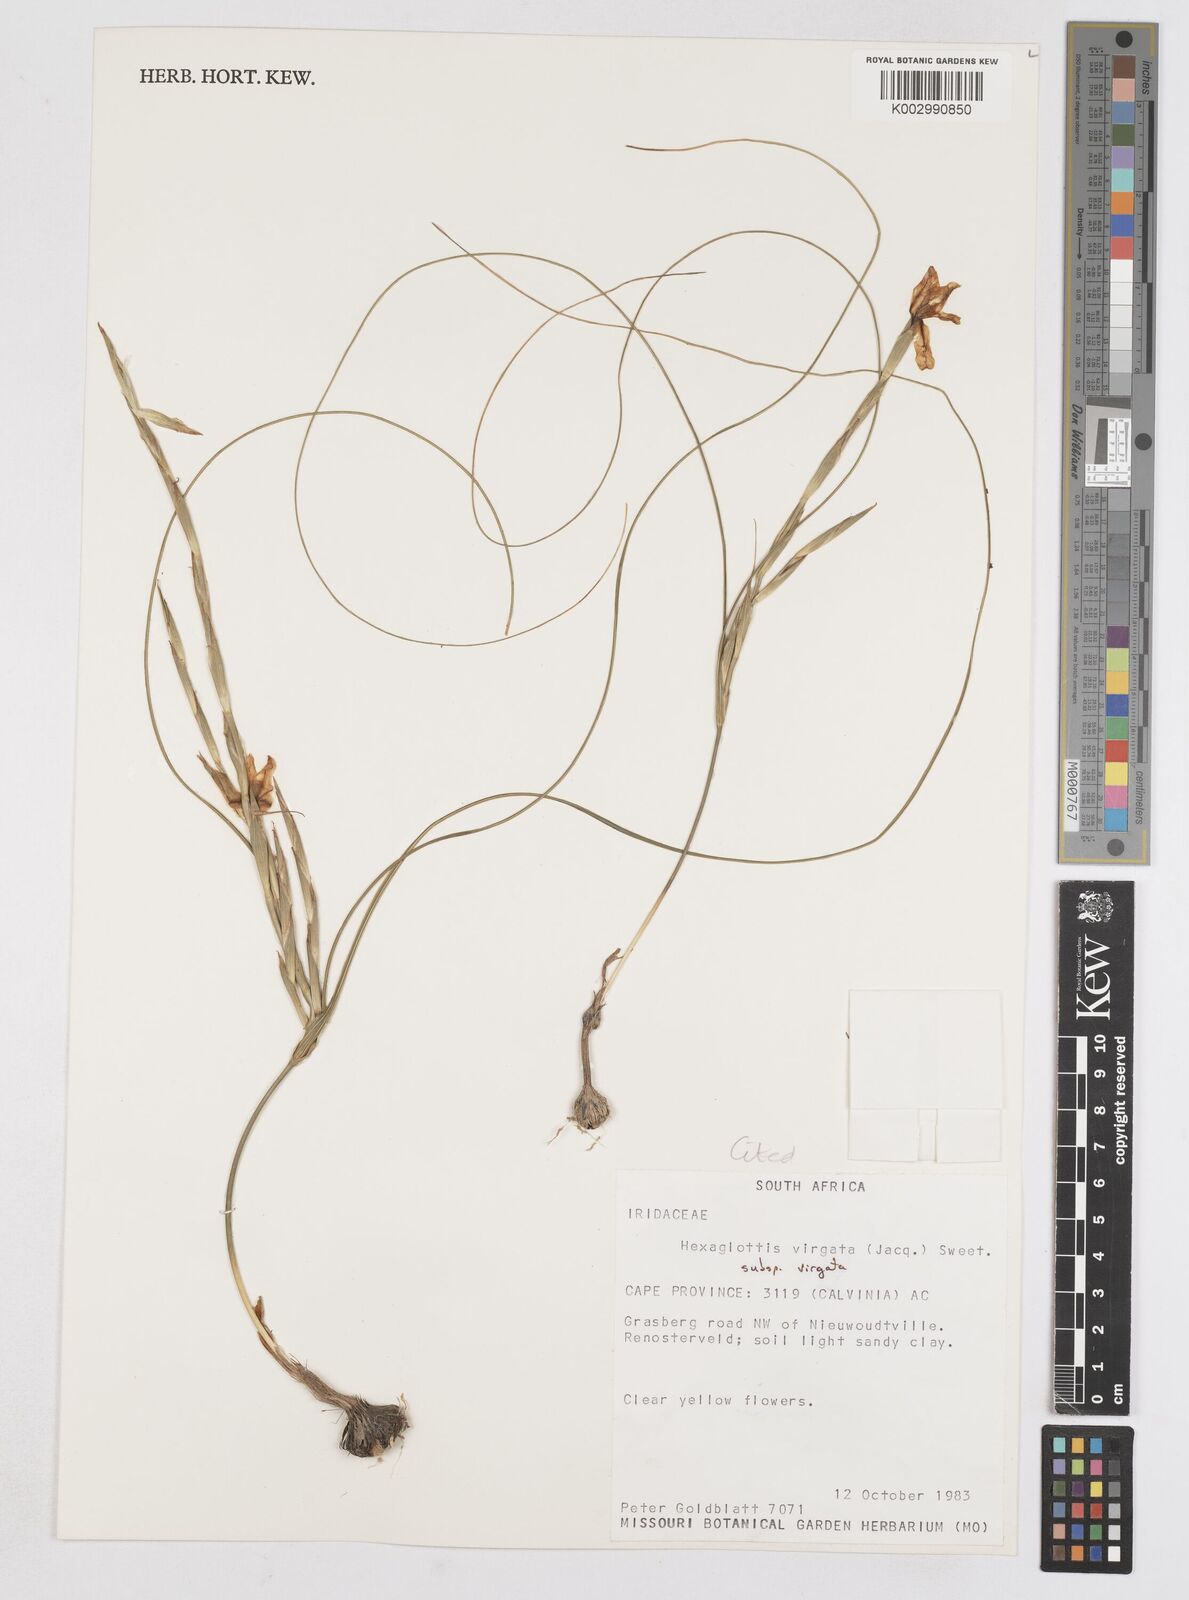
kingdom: Plantae
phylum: Tracheophyta
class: Liliopsida
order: Asparagales
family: Iridaceae
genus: Moraea
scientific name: Moraea virgata
